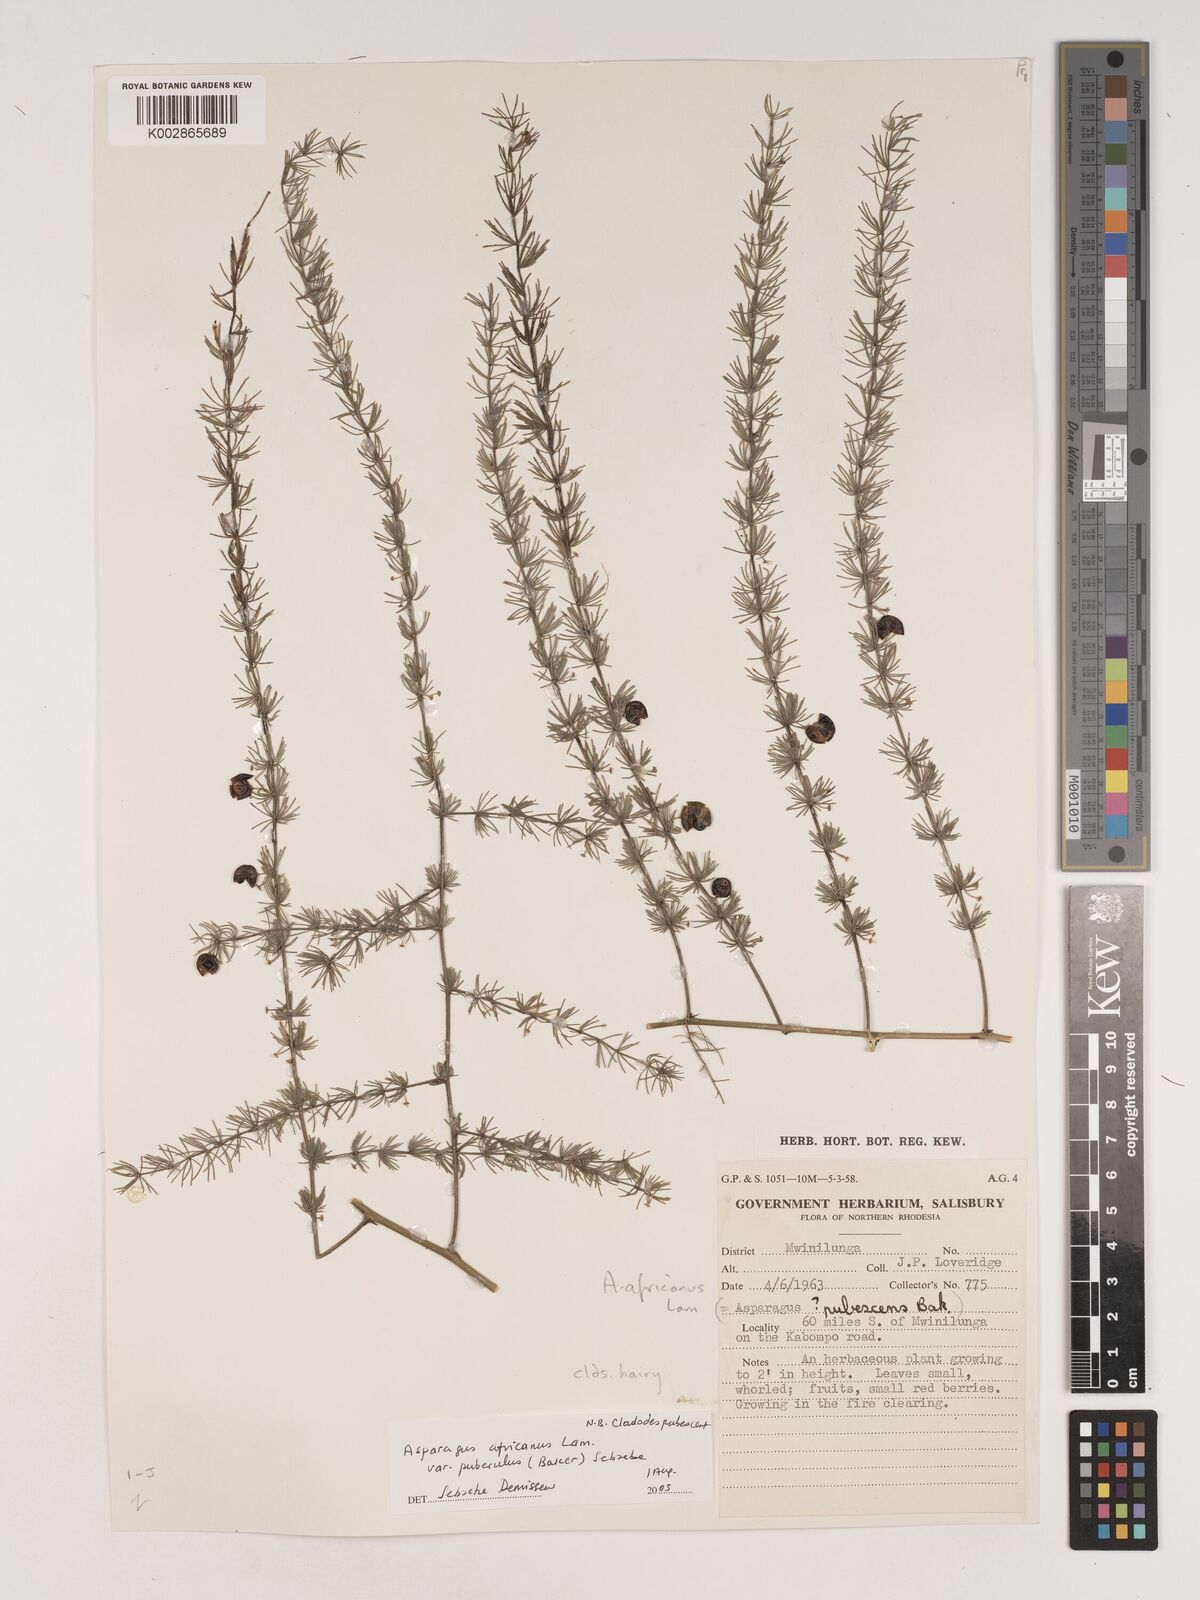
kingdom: Plantae
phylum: Tracheophyta
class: Liliopsida
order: Asparagales
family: Asparagaceae
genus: Asparagus
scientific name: Asparagus
